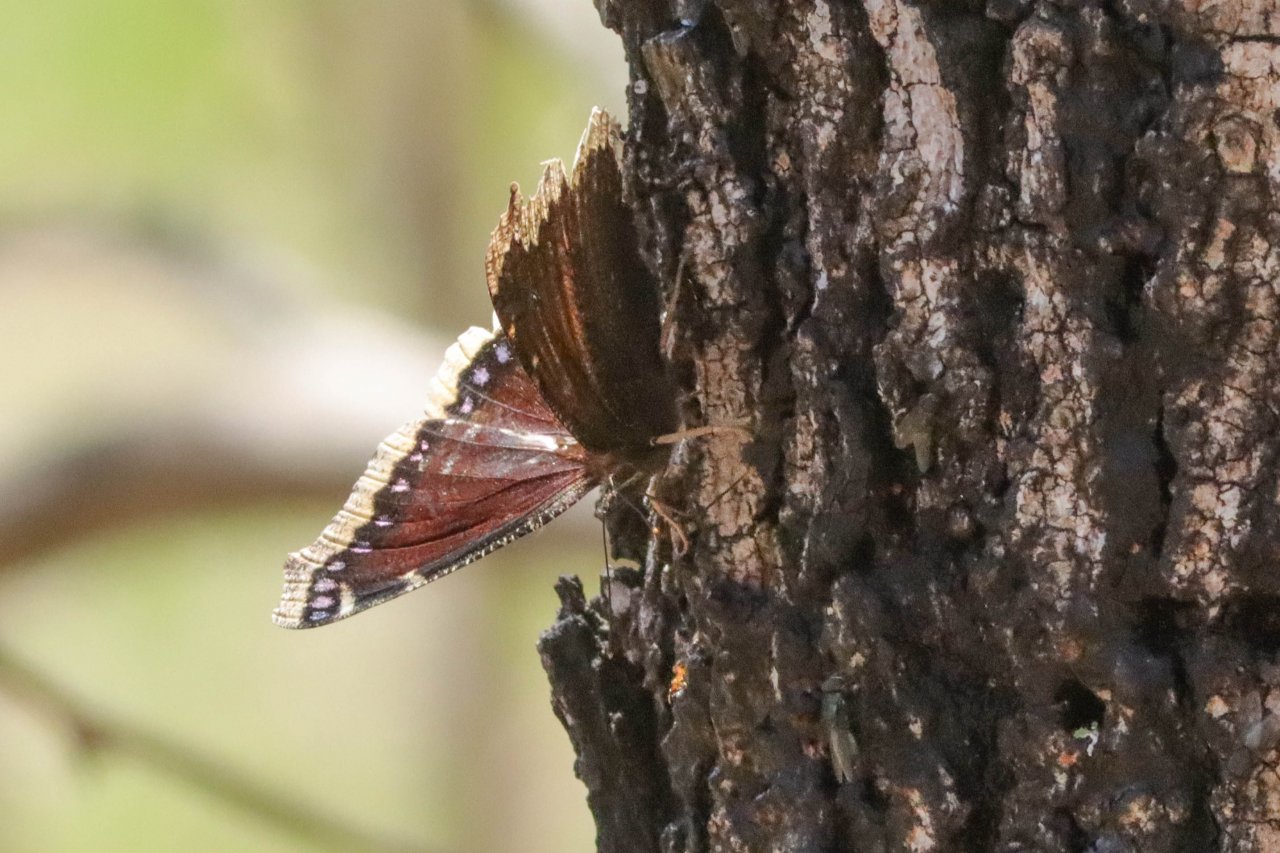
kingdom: Animalia
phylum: Arthropoda
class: Insecta
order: Lepidoptera
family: Nymphalidae
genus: Nymphalis
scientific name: Nymphalis antiopa
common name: Mourning Cloak
